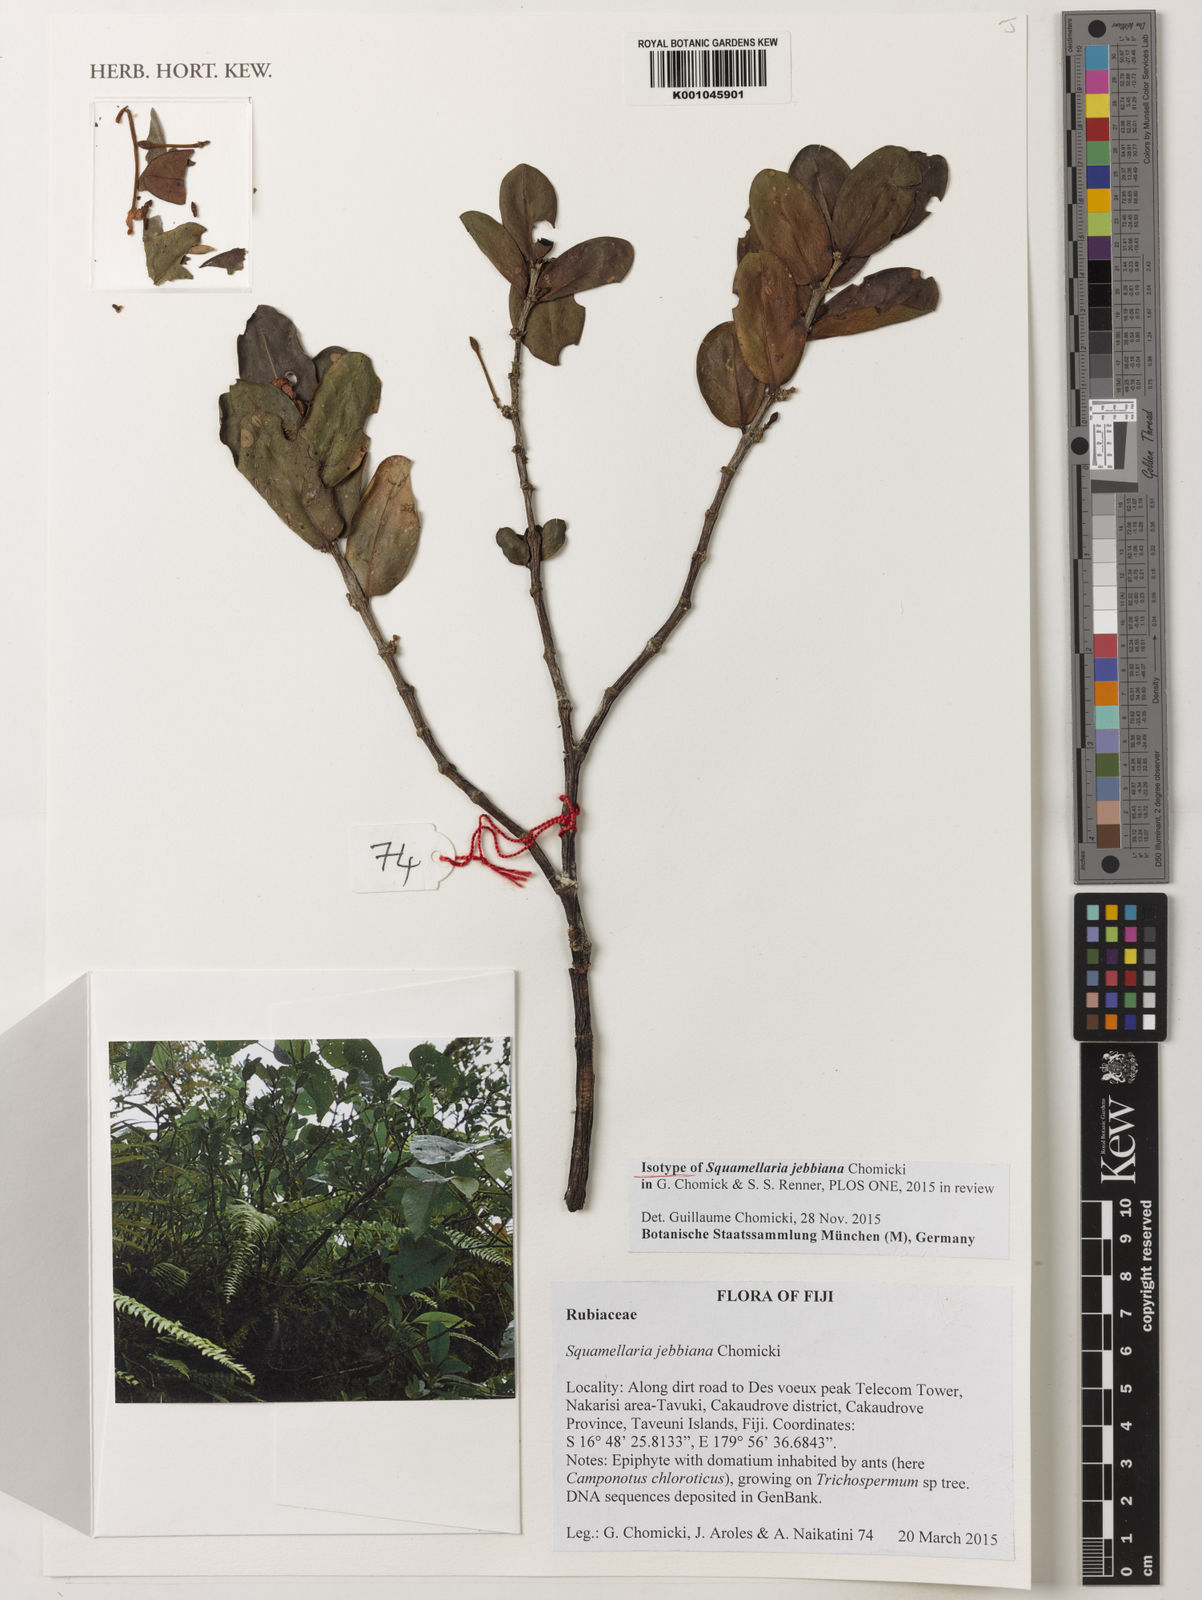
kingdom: Plantae
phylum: Tracheophyta
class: Magnoliopsida
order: Gentianales
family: Rubiaceae
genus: Hydnophytum
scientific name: Hydnophytum grandiflorum
